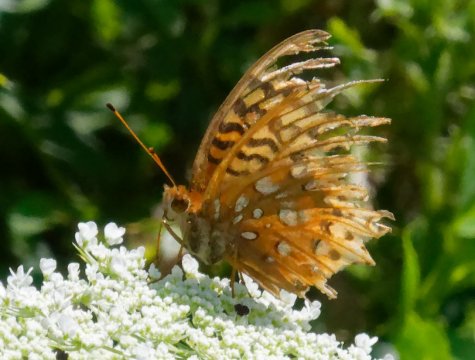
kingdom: Animalia
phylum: Arthropoda
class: Insecta
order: Lepidoptera
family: Nymphalidae
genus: Speyeria
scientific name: Speyeria cybele
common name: Great Spangled Fritillary
